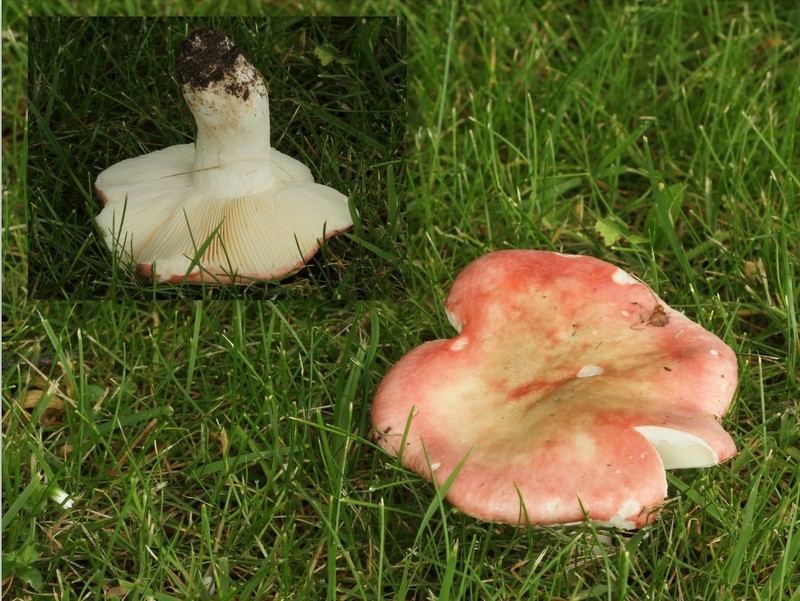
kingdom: Fungi
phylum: Basidiomycota
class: Agaricomycetes
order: Russulales
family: Russulaceae
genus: Russula
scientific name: Russula depallens
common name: falmende skørhat
